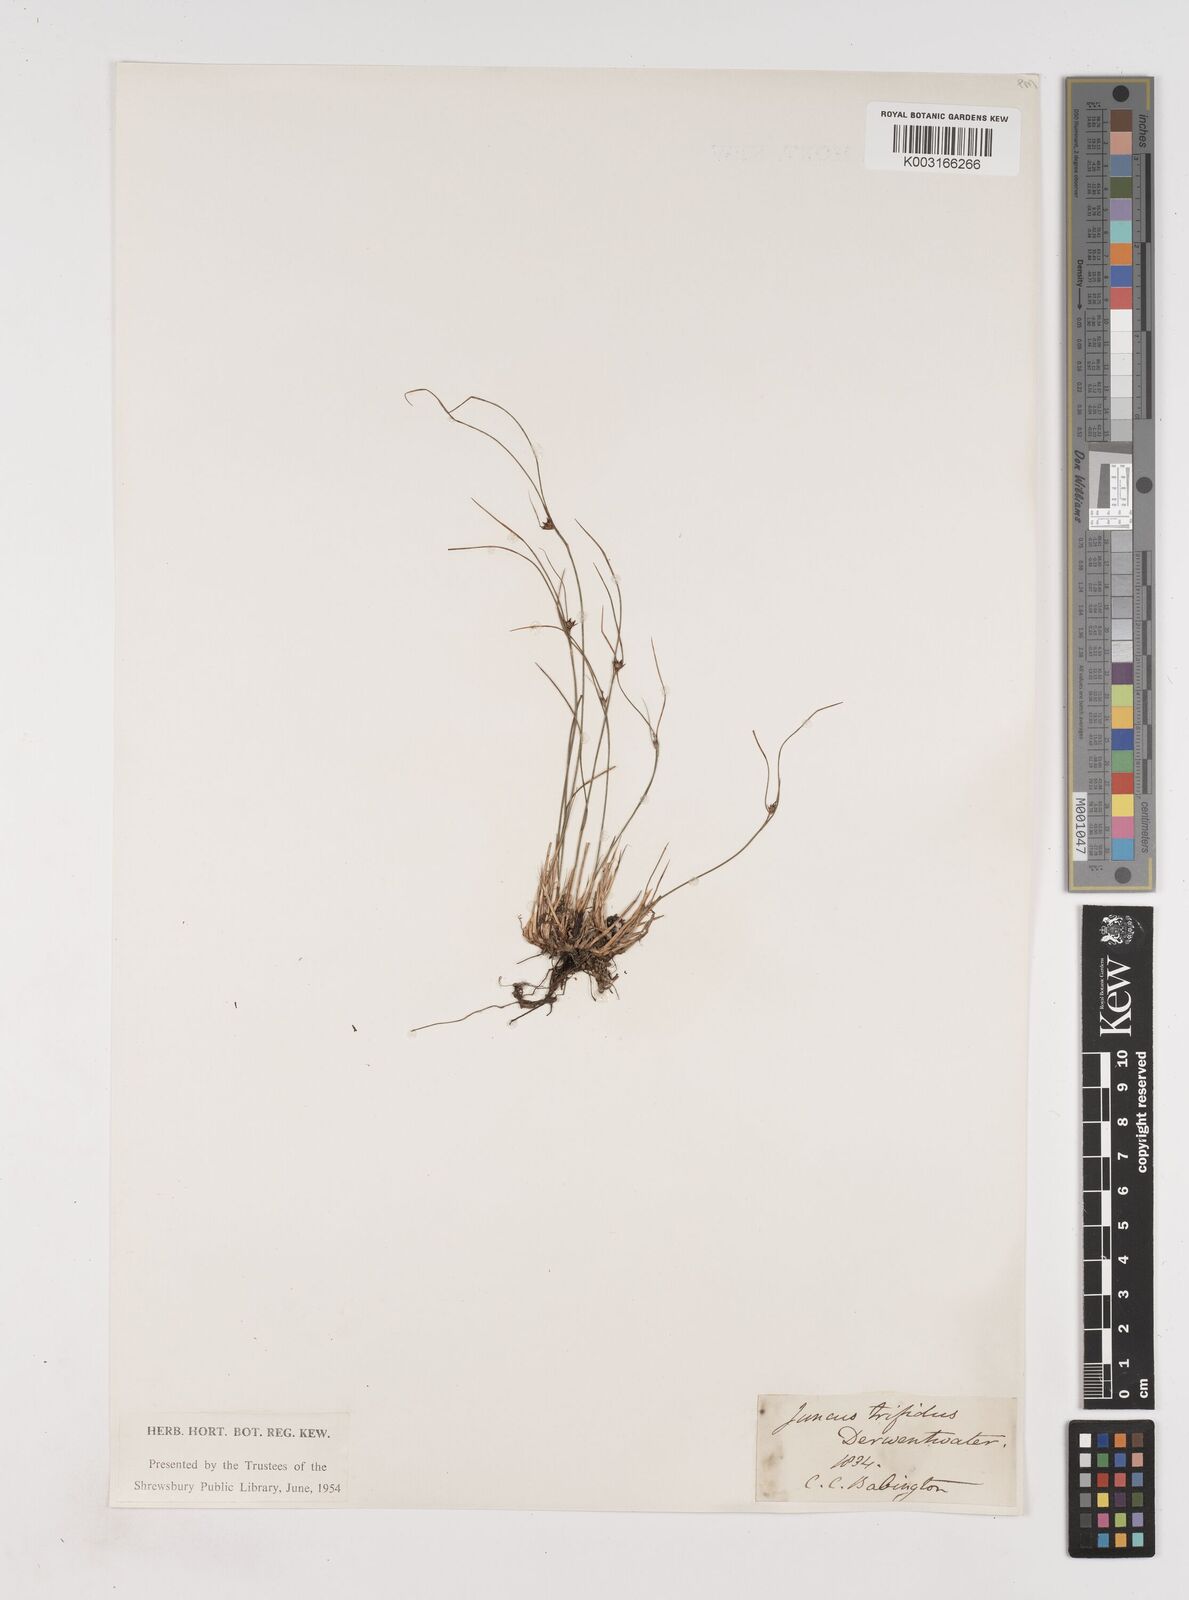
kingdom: Plantae
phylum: Tracheophyta
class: Liliopsida
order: Poales
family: Juncaceae
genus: Oreojuncus
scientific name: Oreojuncus trifidus
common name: Highland rush
